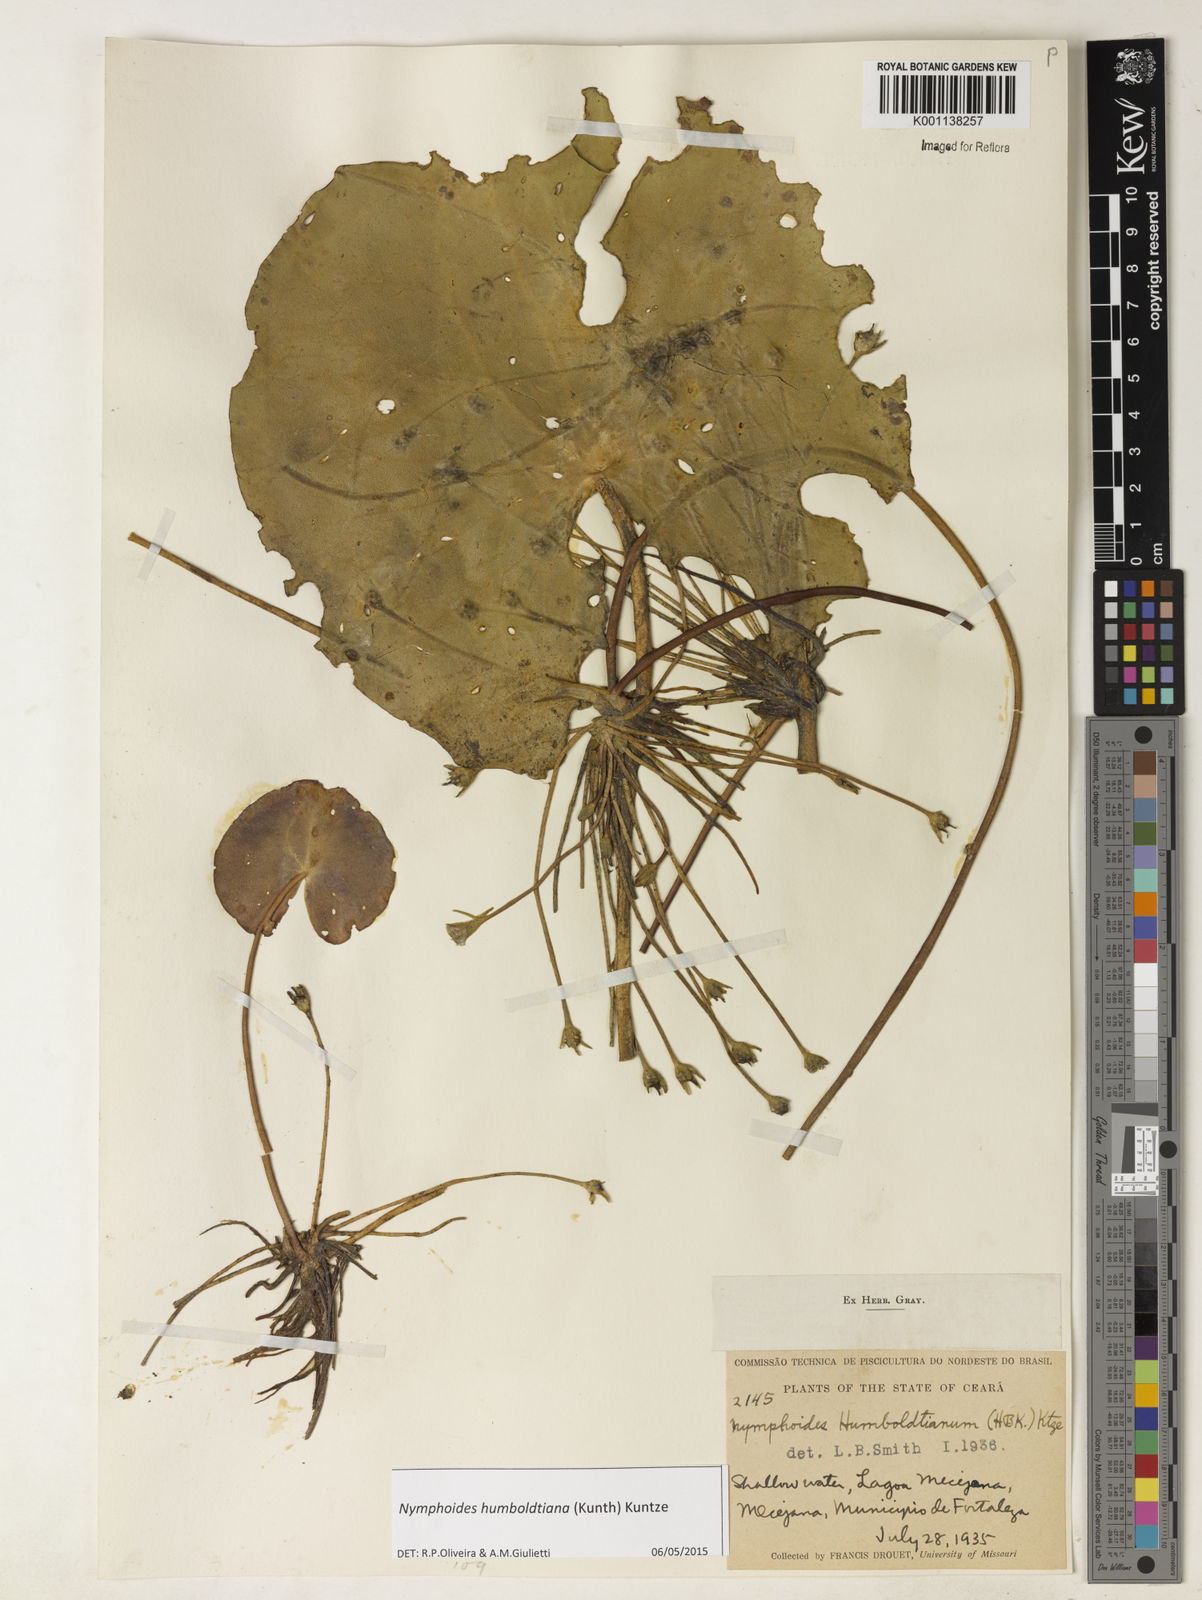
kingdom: Plantae
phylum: Tracheophyta
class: Magnoliopsida
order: Asterales
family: Menyanthaceae
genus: Nymphoides
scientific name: Nymphoides humboldtiana
